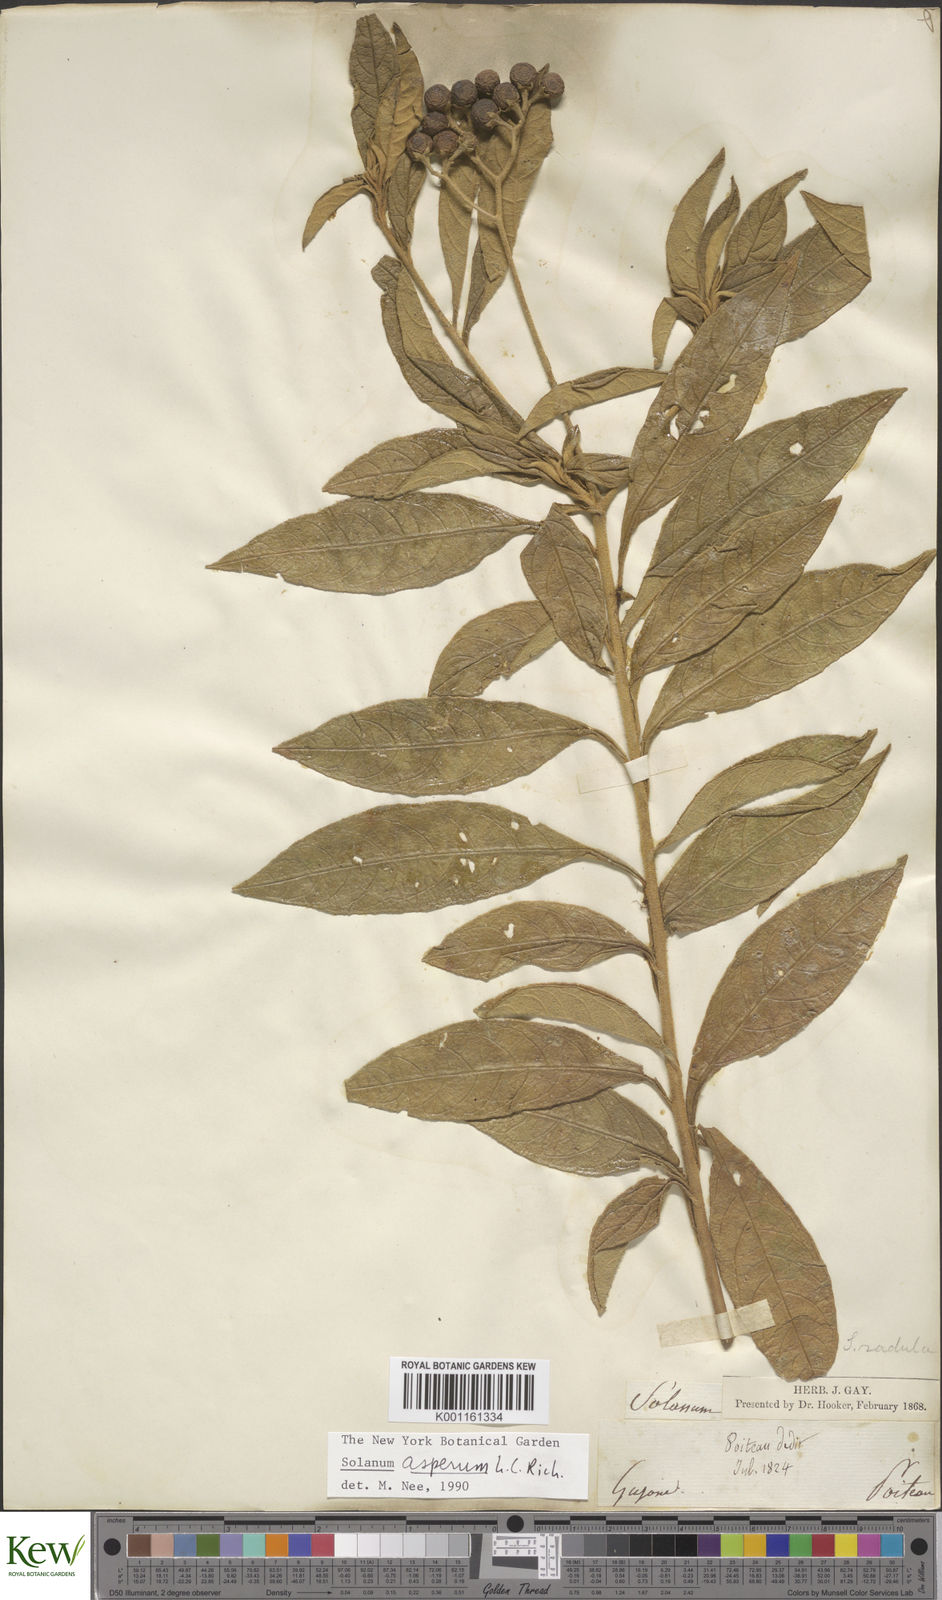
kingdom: Plantae
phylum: Tracheophyta
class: Magnoliopsida
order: Solanales
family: Solanaceae
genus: Solanum
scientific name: Solanum asperum
